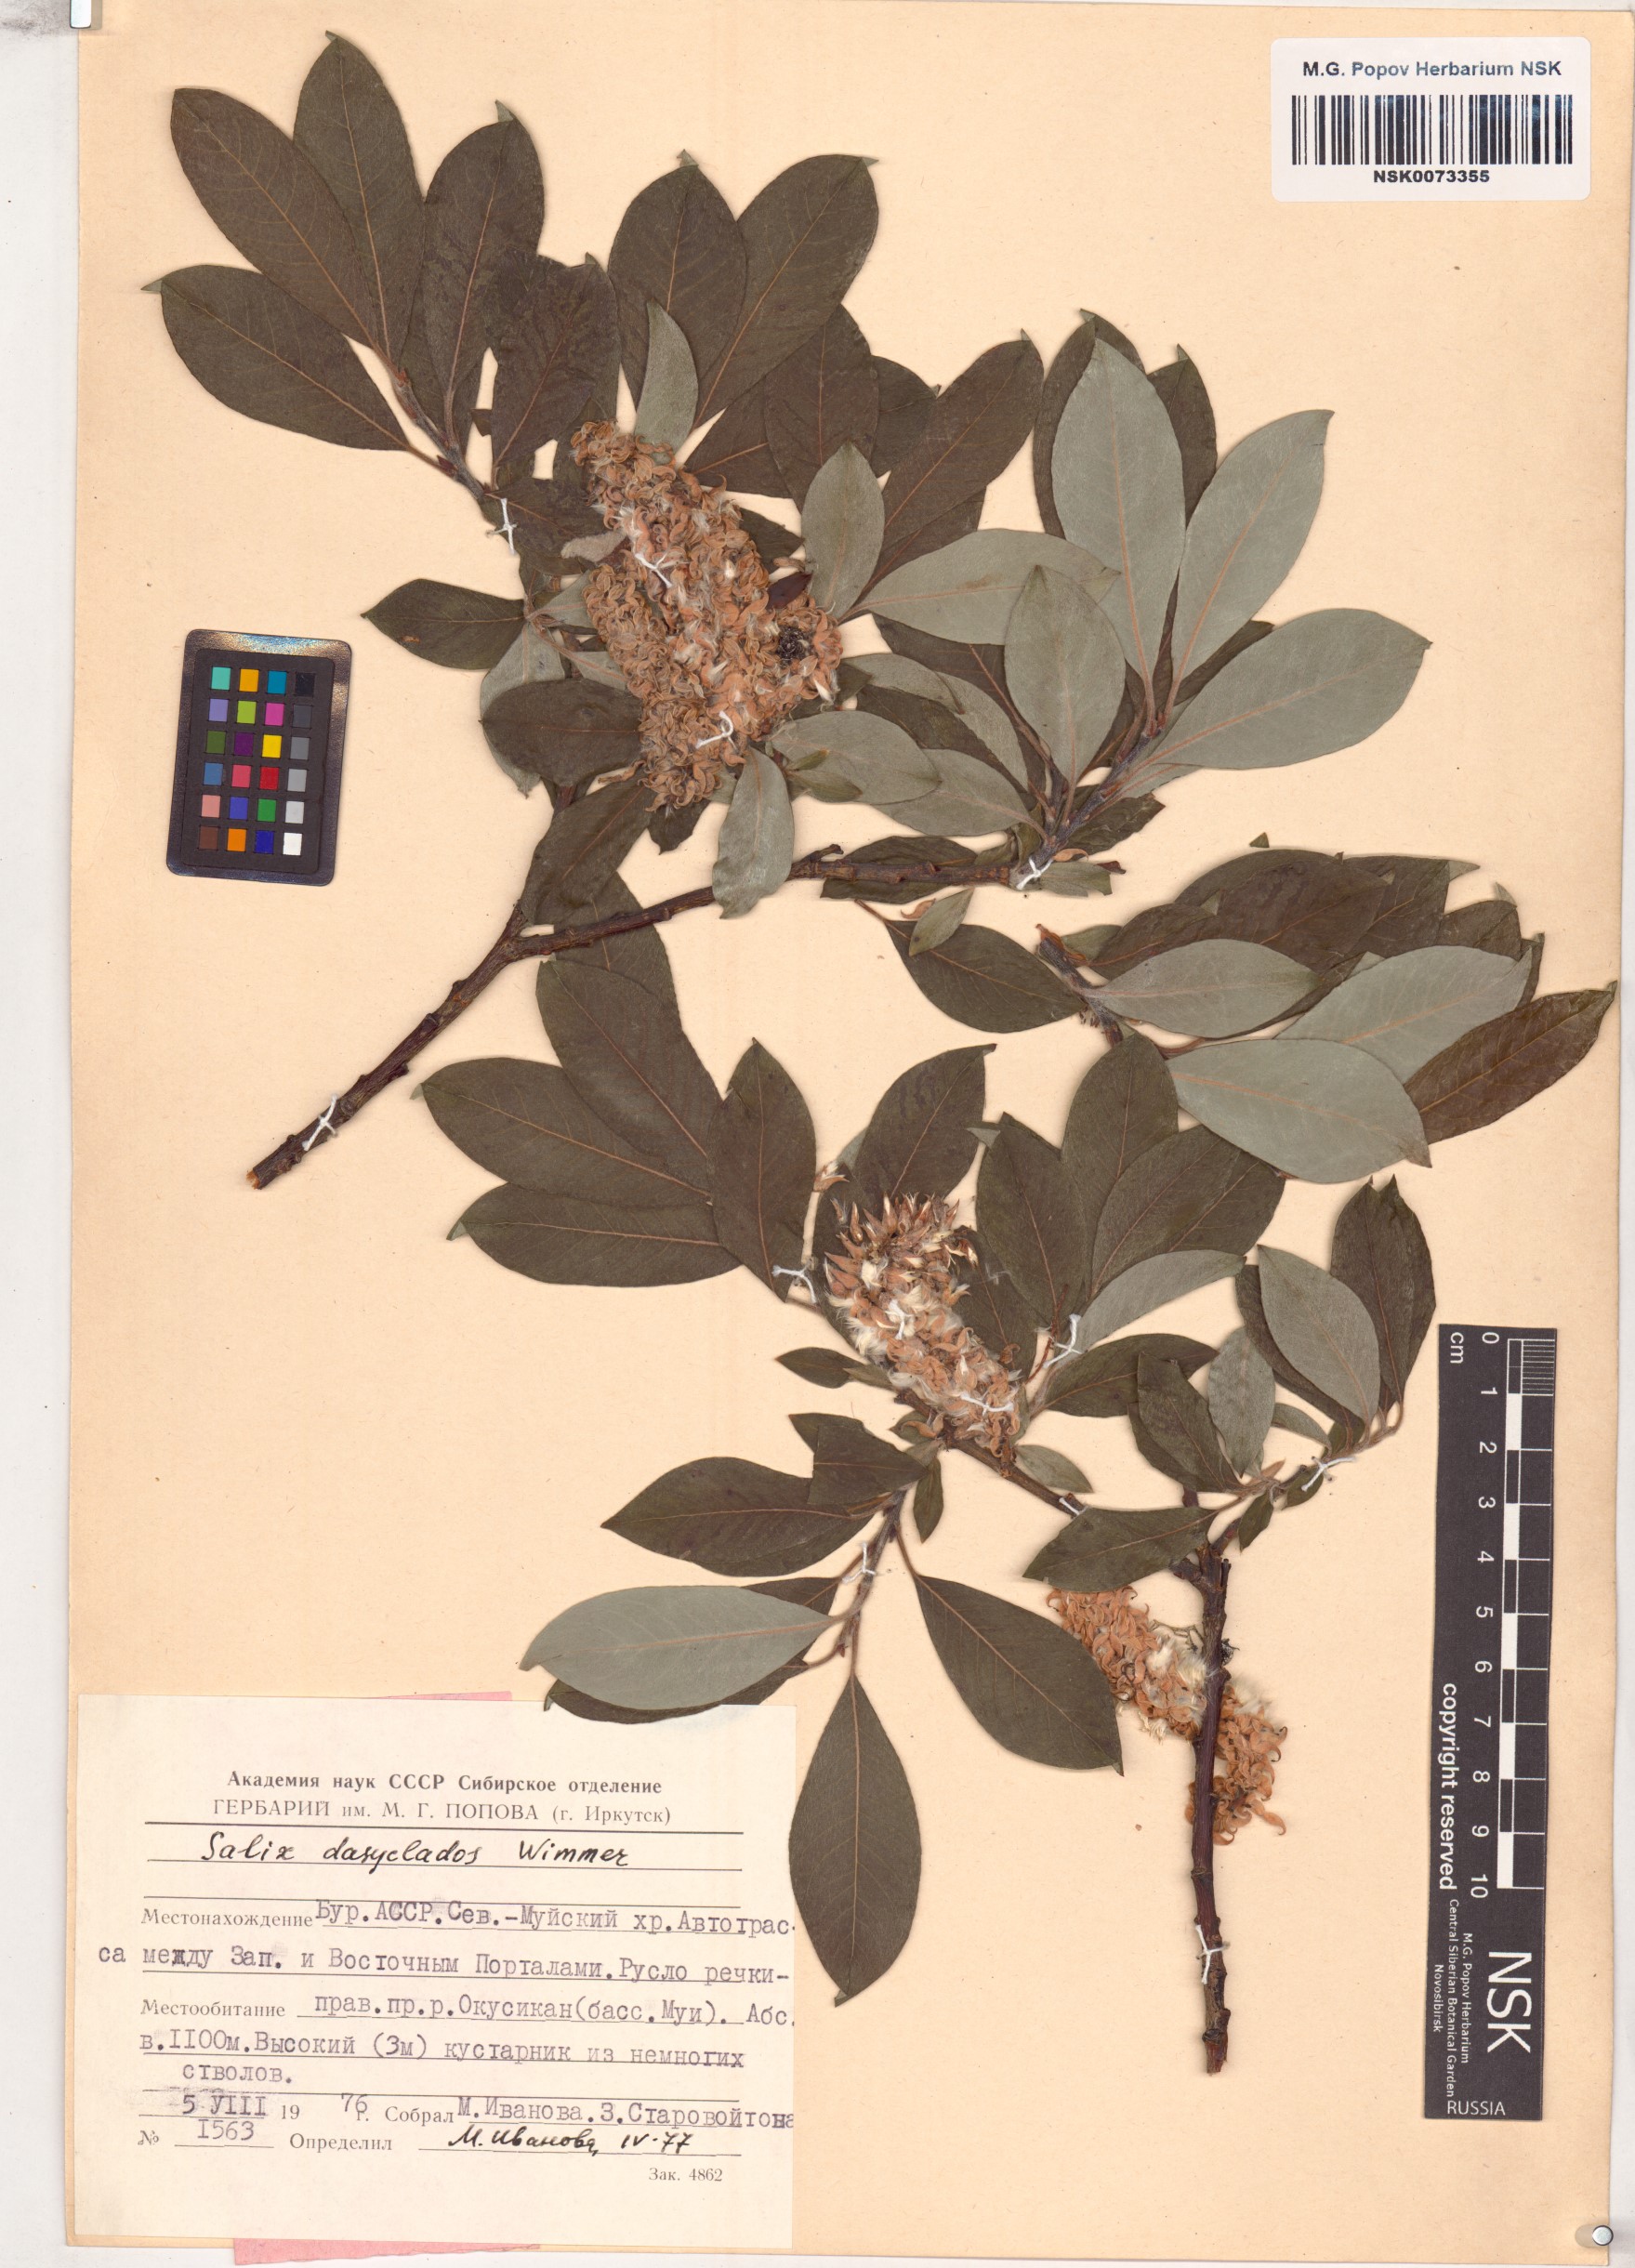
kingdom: Plantae
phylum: Tracheophyta
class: Magnoliopsida
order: Malpighiales
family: Salicaceae
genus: Salix
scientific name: Salix gmelinii
